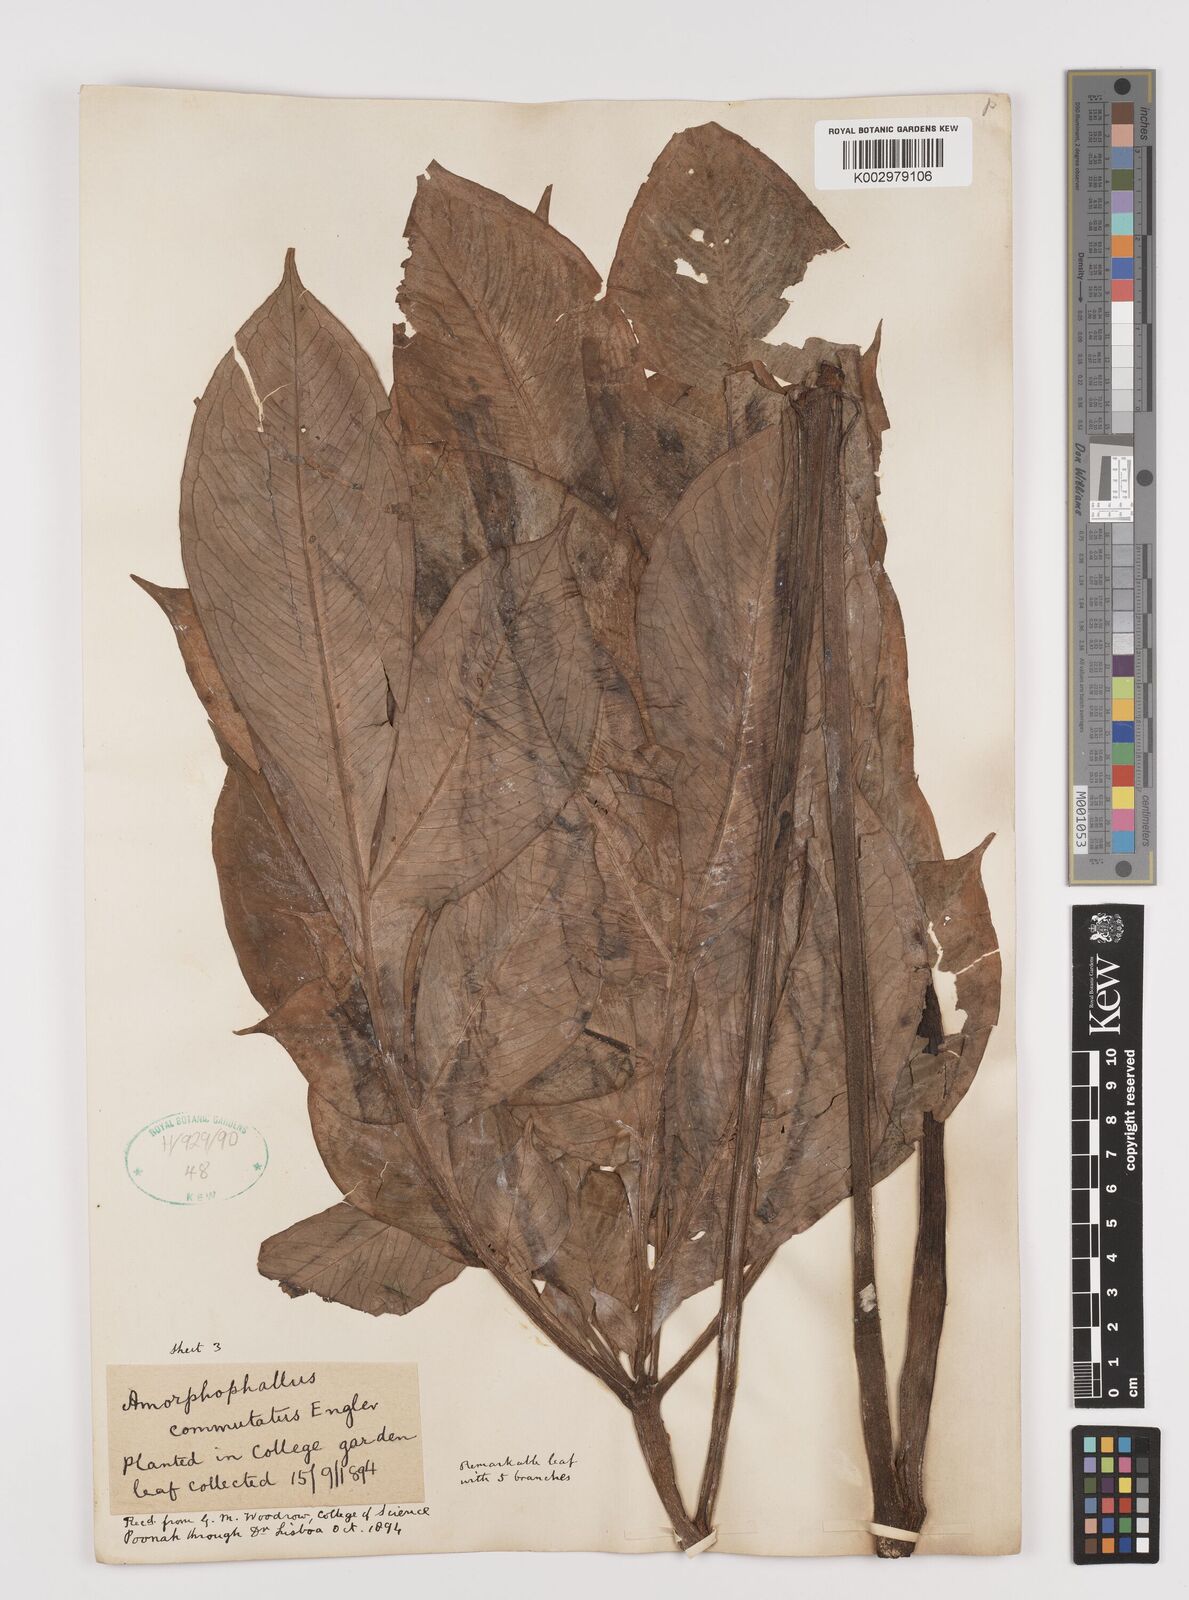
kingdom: Plantae
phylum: Tracheophyta
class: Liliopsida
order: Alismatales
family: Araceae
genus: Amorphophallus
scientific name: Amorphophallus commutatus
